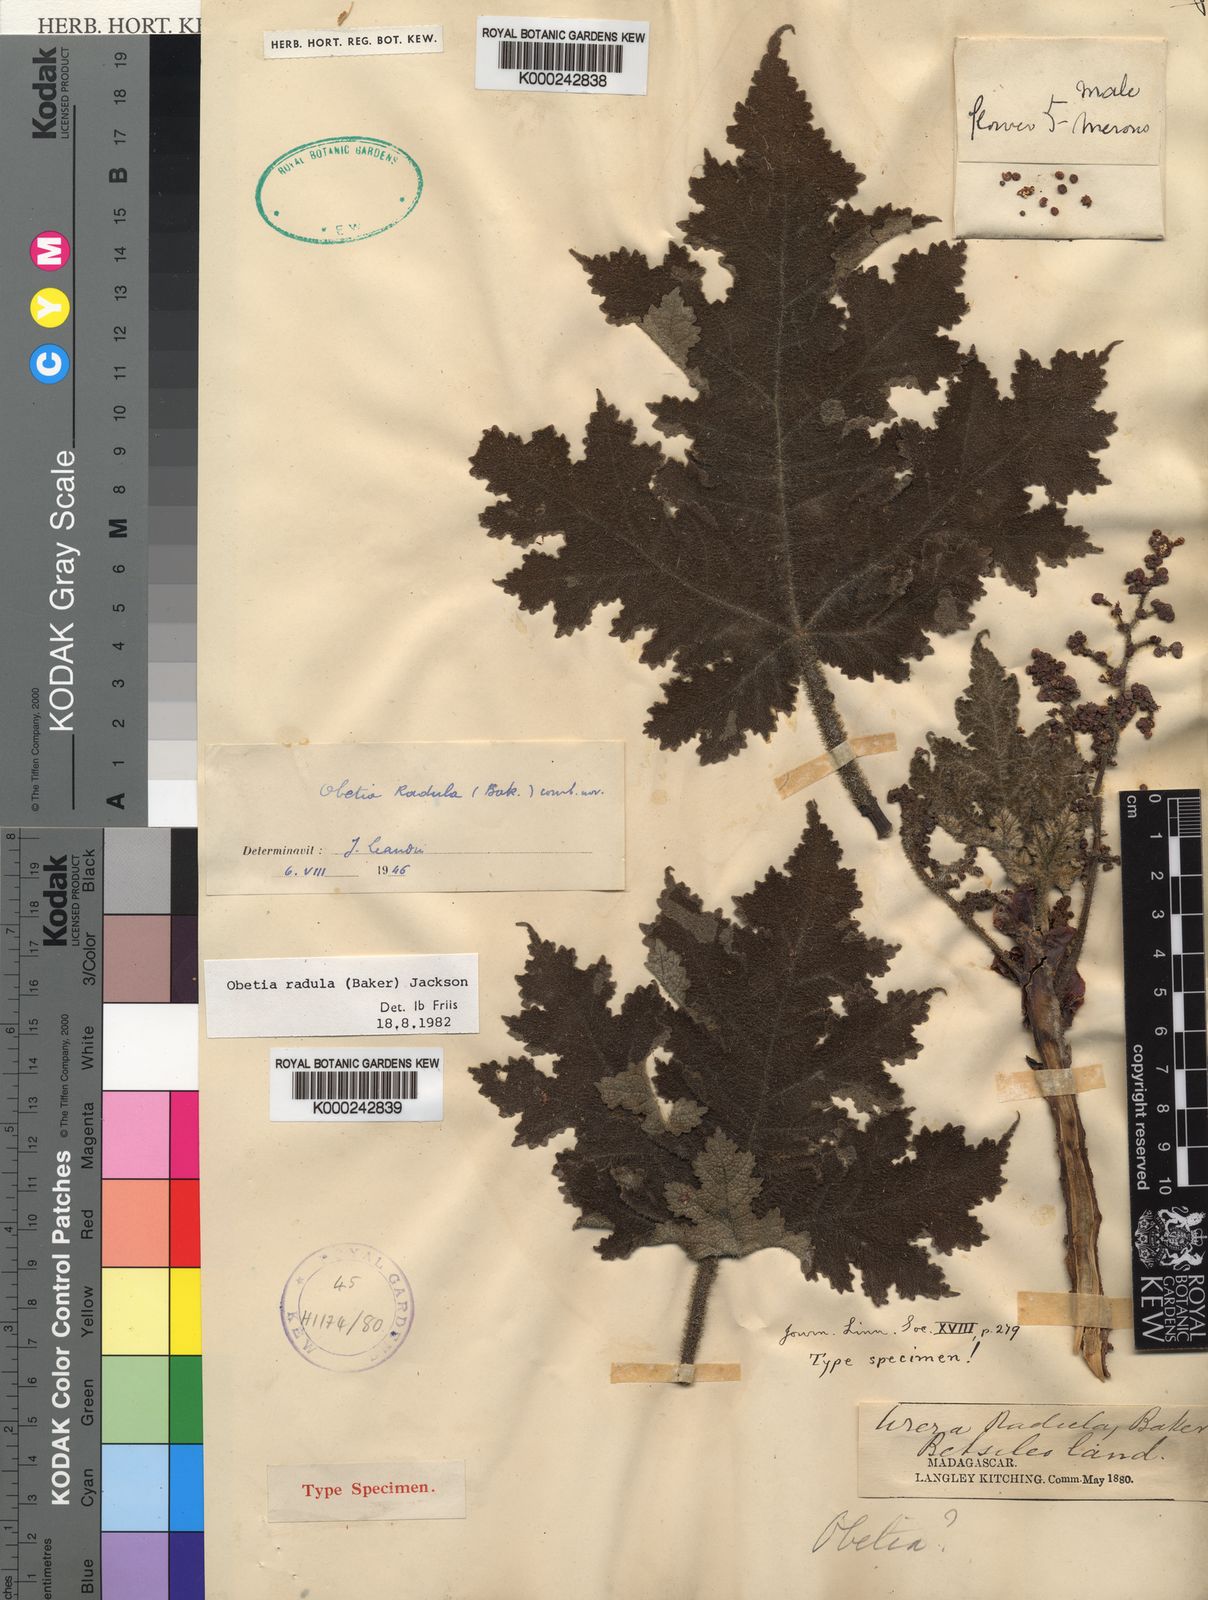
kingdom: Plantae
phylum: Tracheophyta
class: Magnoliopsida
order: Rosales
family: Urticaceae
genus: Obetia
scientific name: Obetia radula
